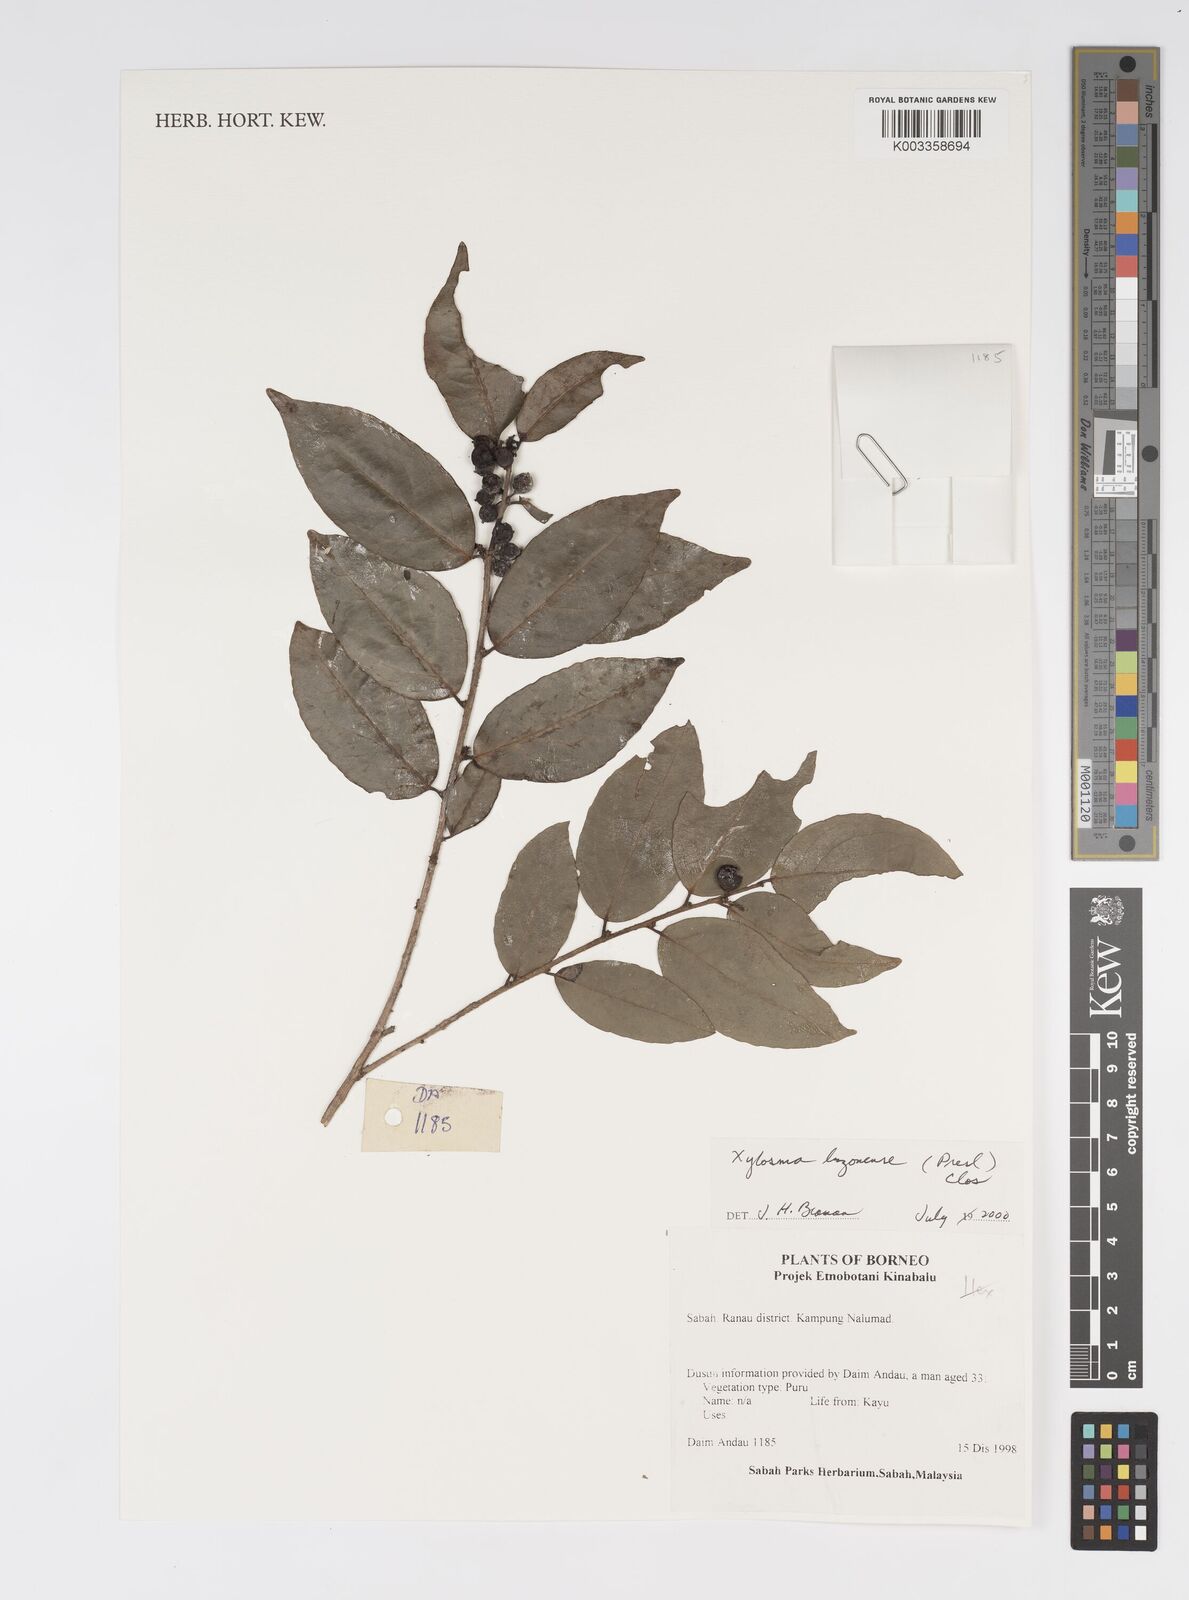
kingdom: Plantae
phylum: Tracheophyta
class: Magnoliopsida
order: Malpighiales
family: Salicaceae
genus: Xylosma
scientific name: Xylosma luzonensis
